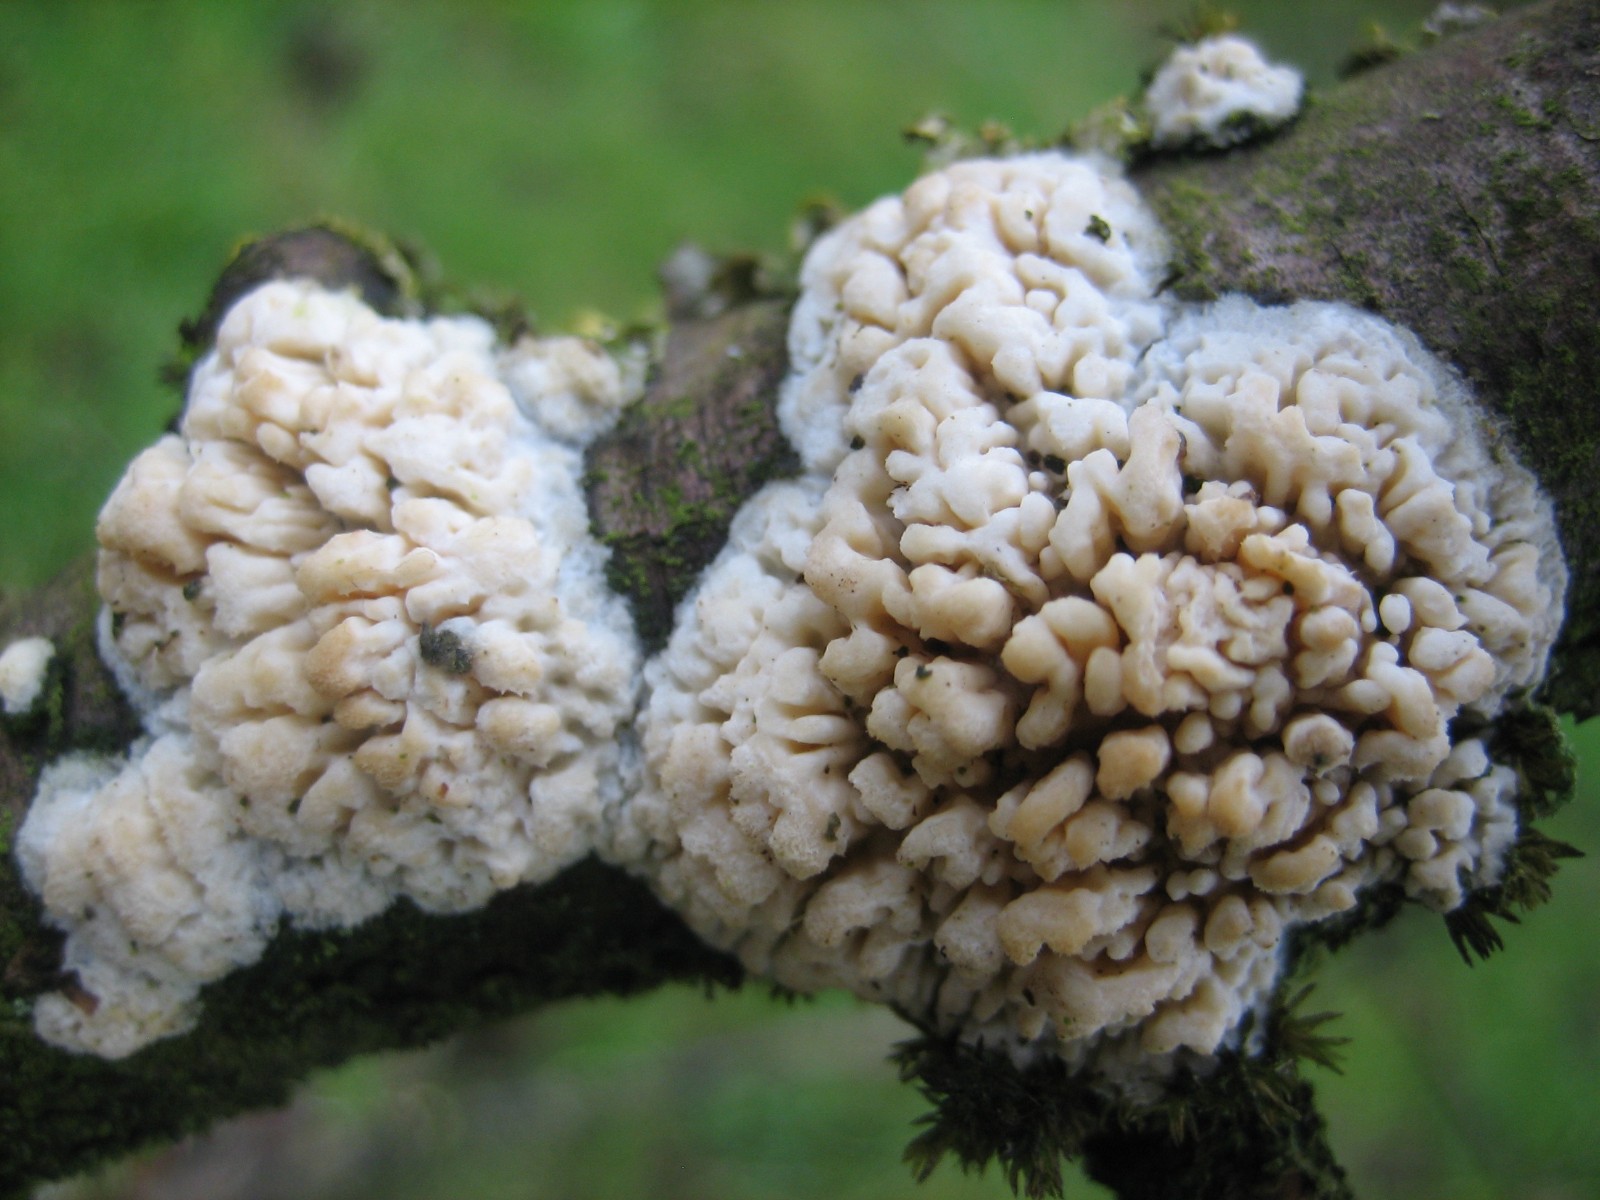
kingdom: Fungi
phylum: Basidiomycota
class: Agaricomycetes
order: Hymenochaetales
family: Schizoporaceae
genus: Xylodon
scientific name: Xylodon radula
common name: grovtandet kalkskind
